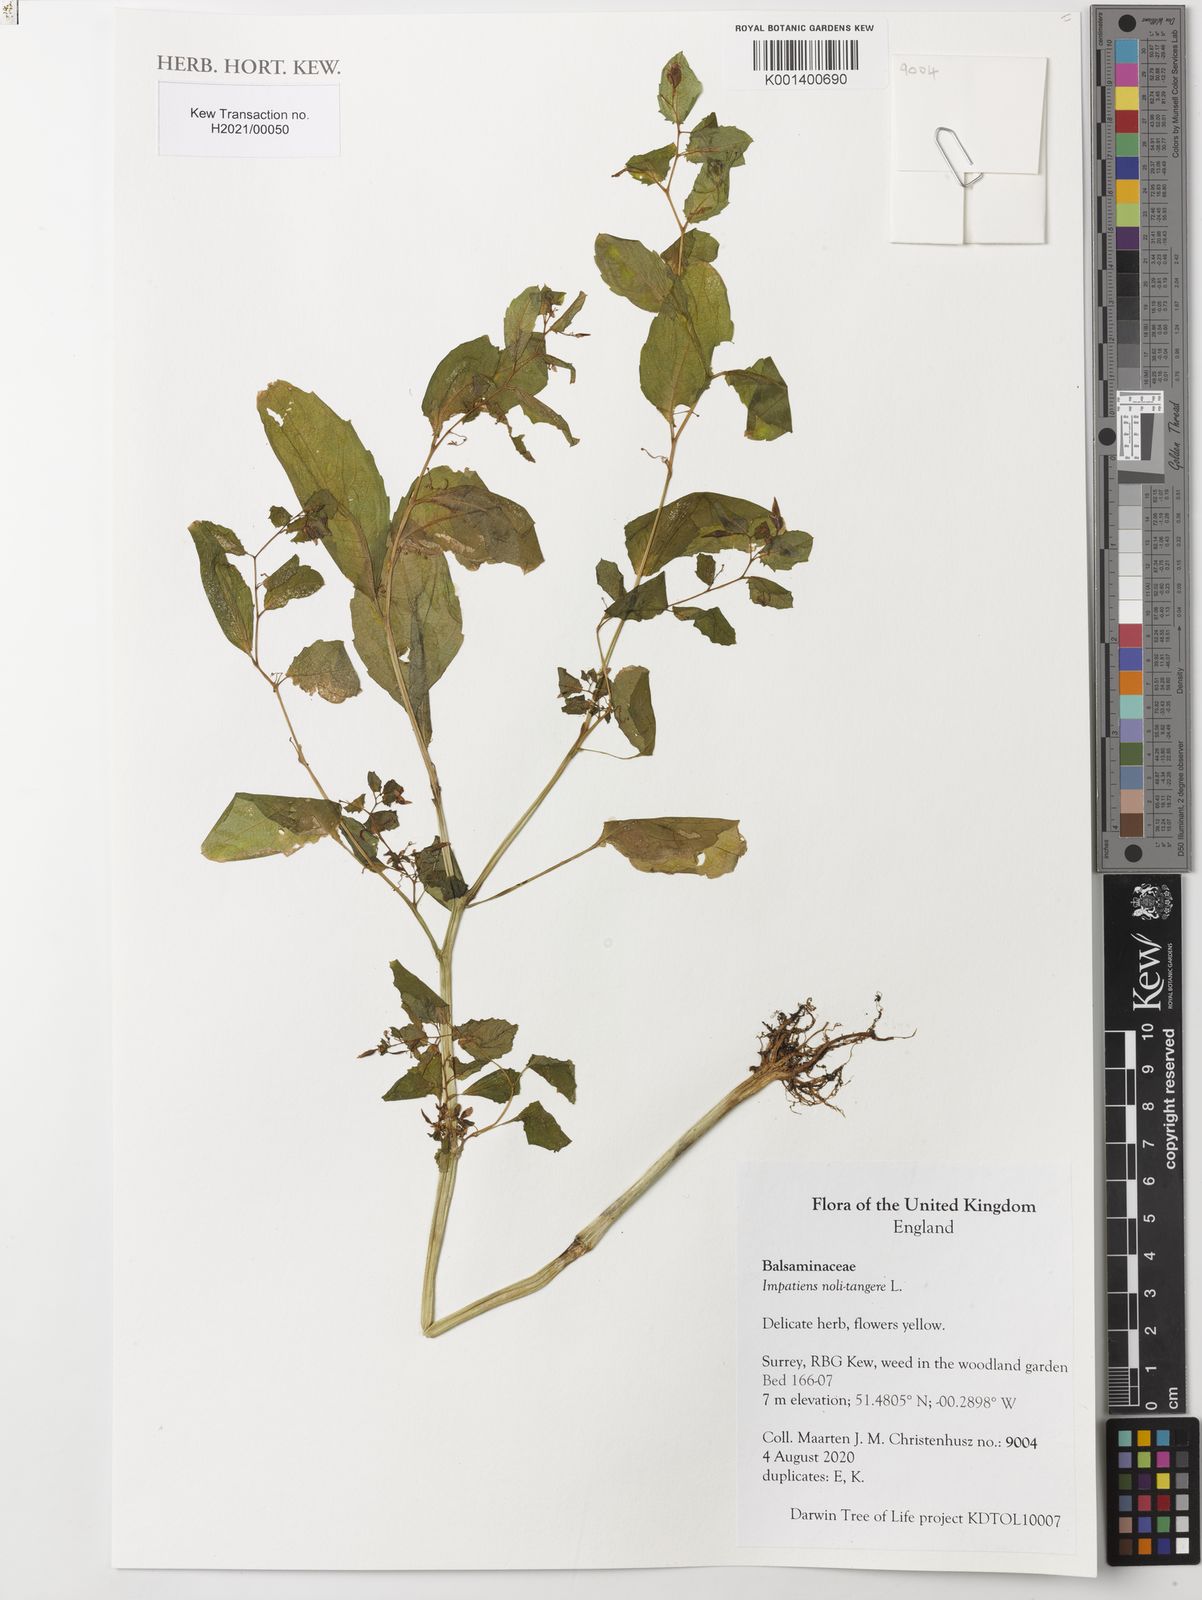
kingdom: Plantae
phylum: Tracheophyta
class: Magnoliopsida
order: Ericales
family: Balsaminaceae
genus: Impatiens
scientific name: Impatiens noli-tangere
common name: Touch-me-not balsam
